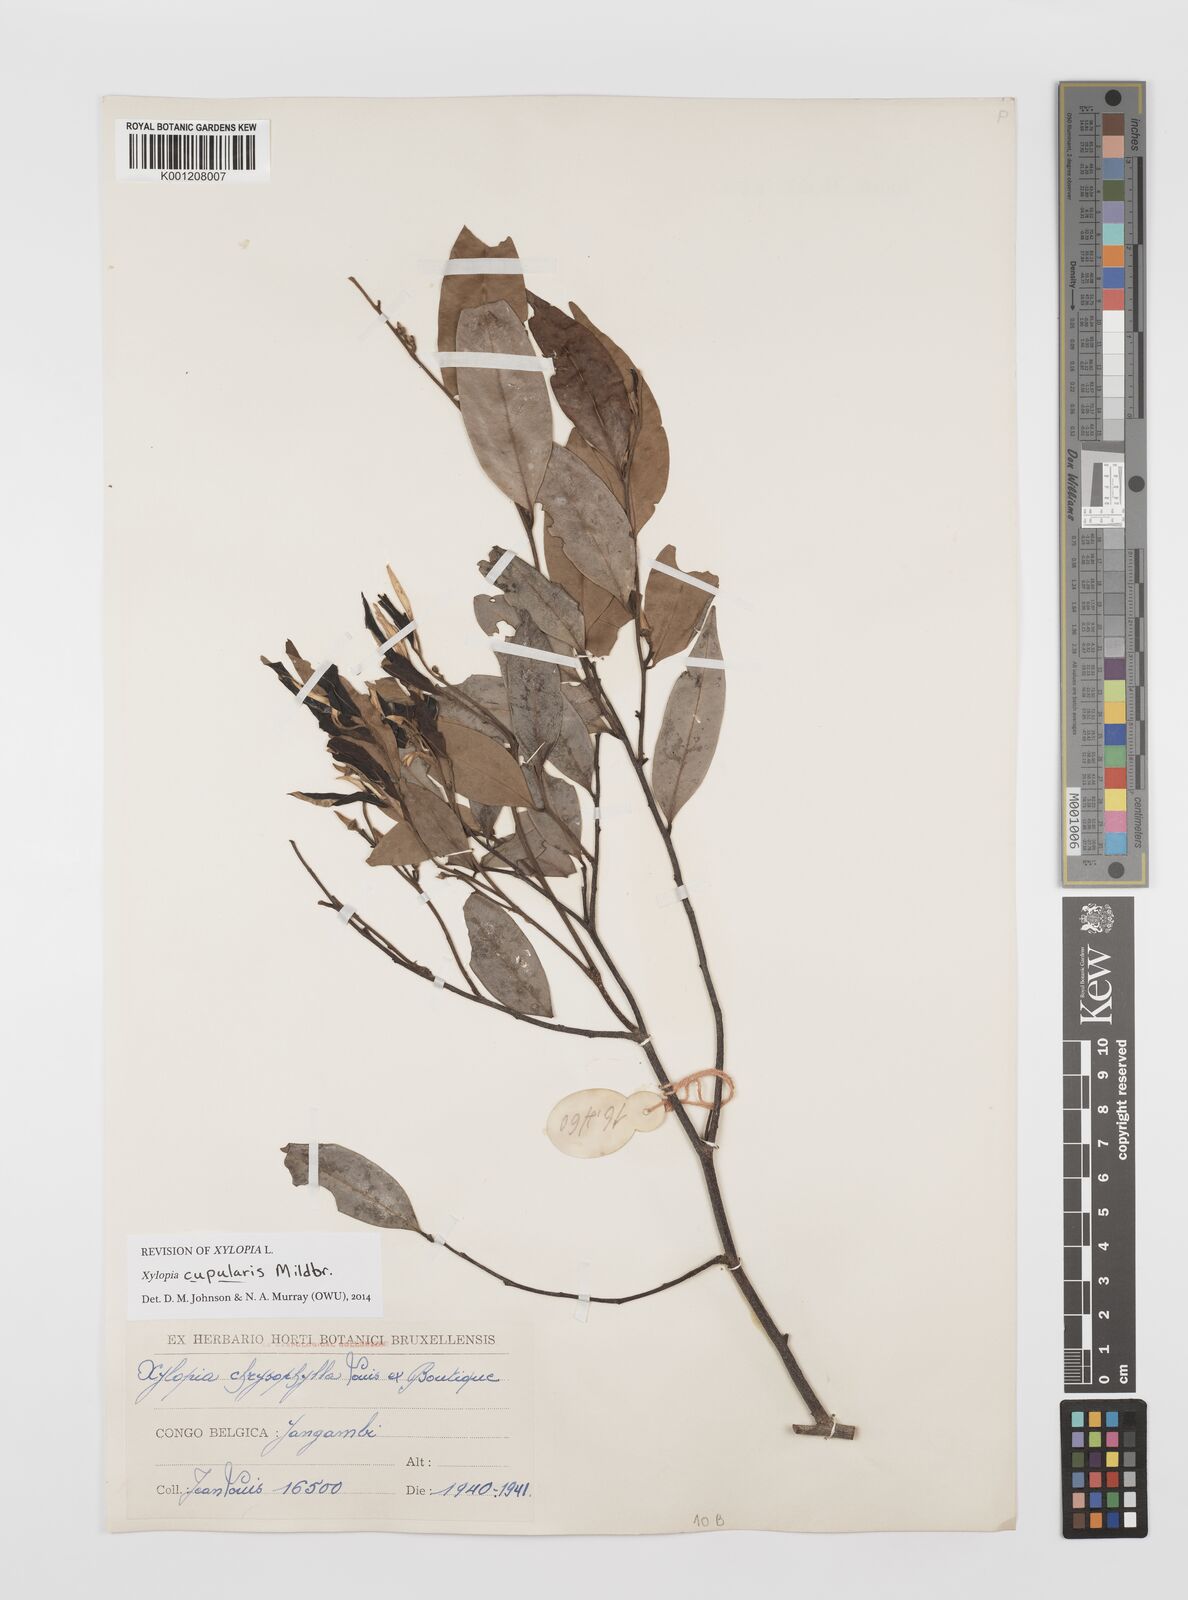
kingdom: Plantae
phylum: Tracheophyta
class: Magnoliopsida
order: Magnoliales
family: Annonaceae
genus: Xylopia
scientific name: Xylopia cupularis
